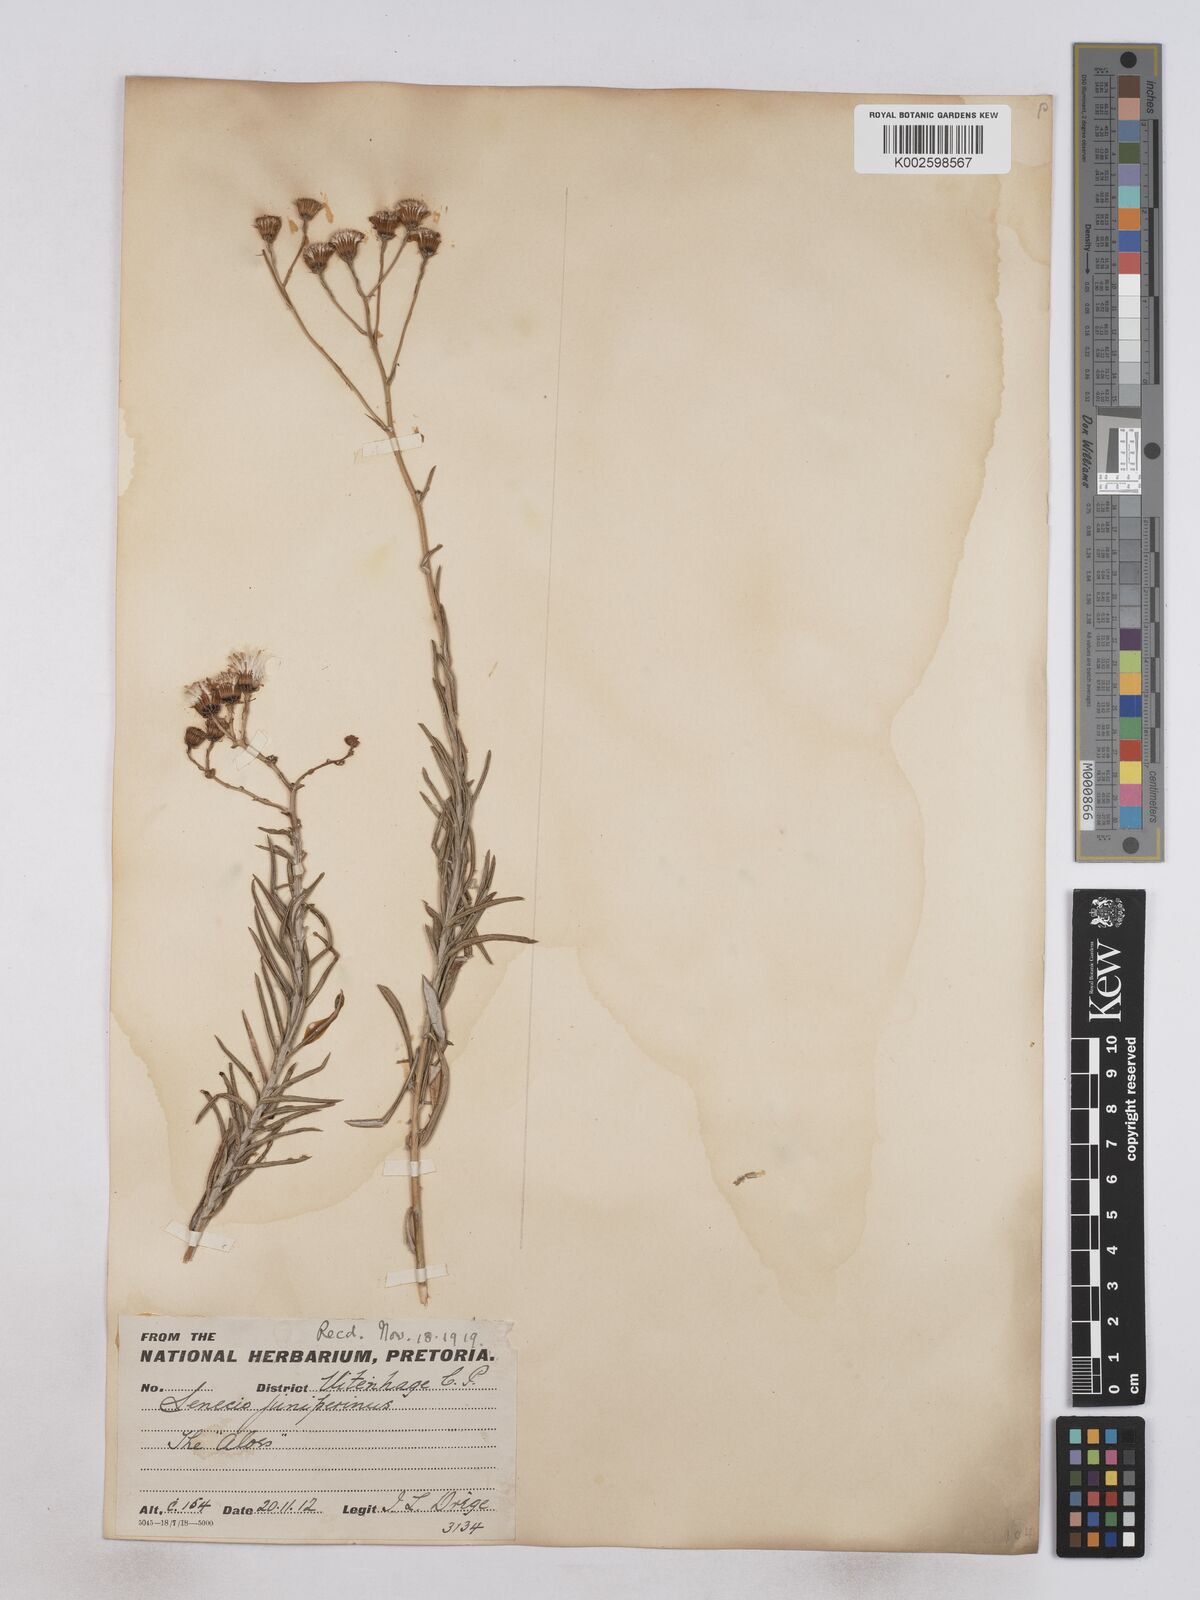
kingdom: Plantae
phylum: Tracheophyta
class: Magnoliopsida
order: Asterales
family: Asteraceae
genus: Senecio
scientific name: Senecio juniperinus
